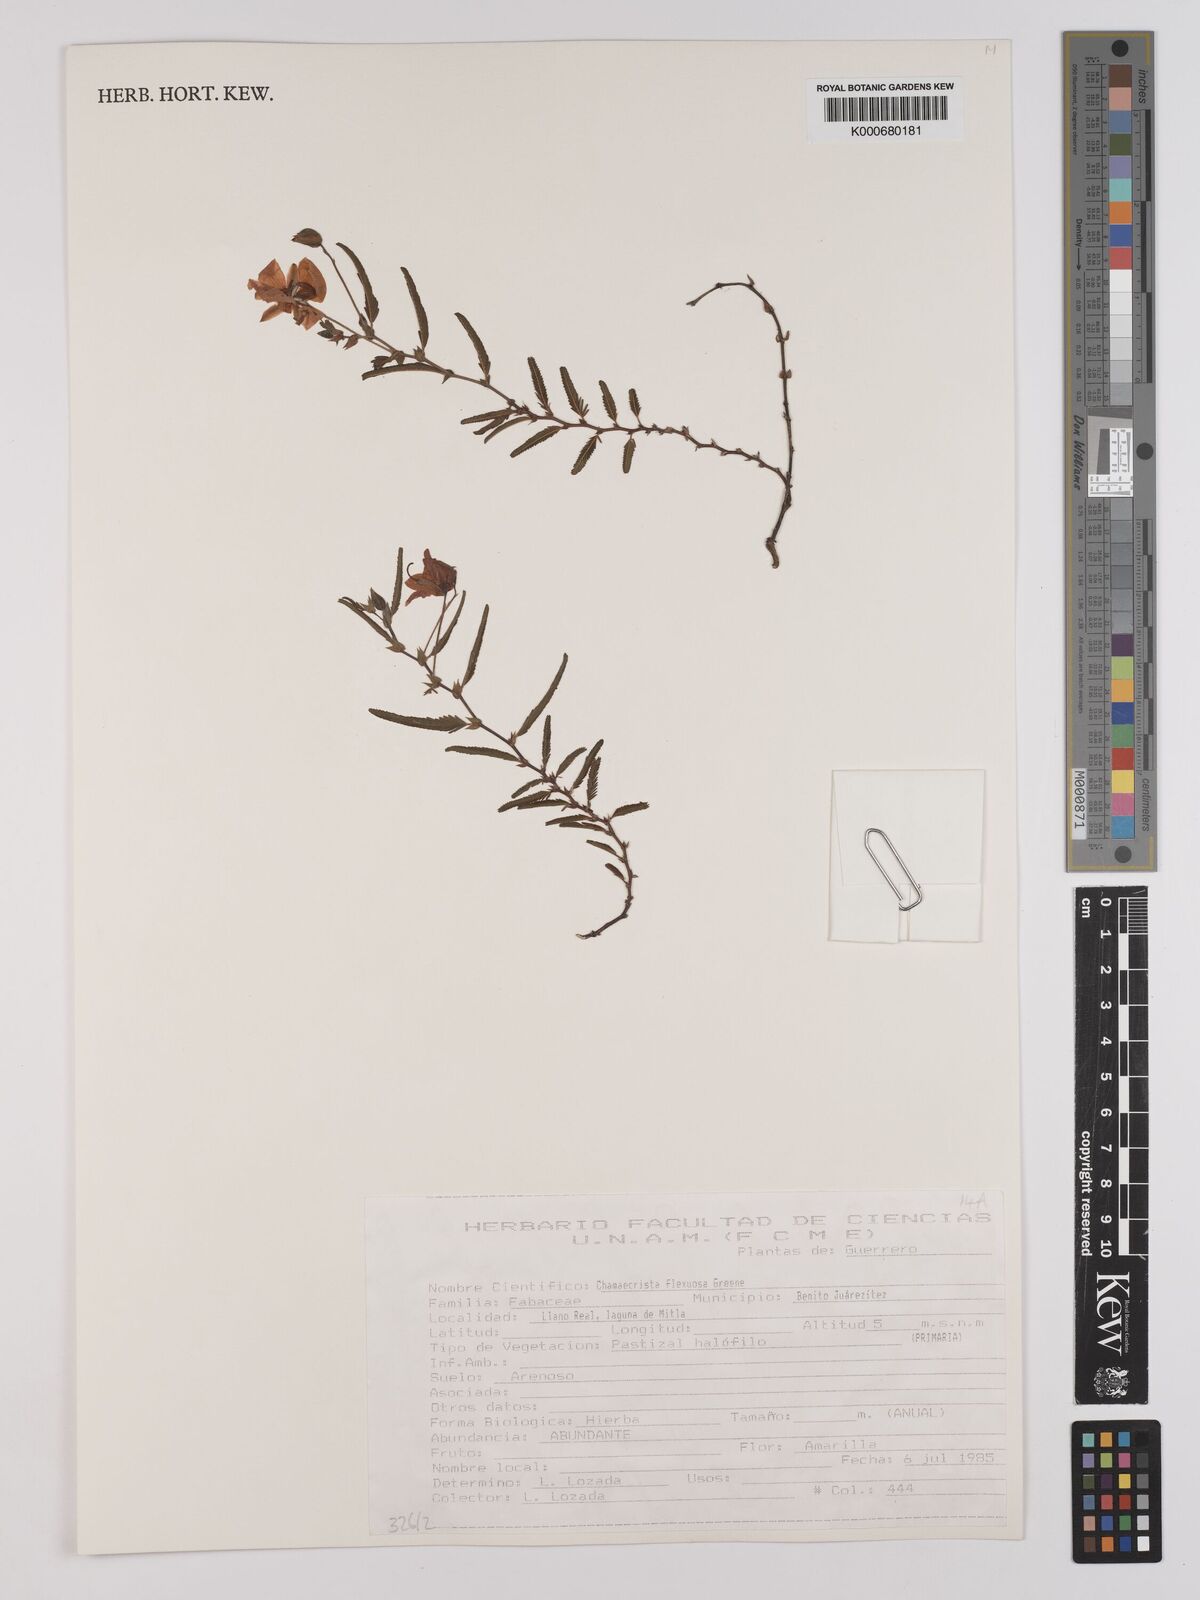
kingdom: Plantae
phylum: Tracheophyta
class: Magnoliopsida
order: Fabales
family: Fabaceae
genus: Chamaecrista
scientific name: Chamaecrista flexuosa
